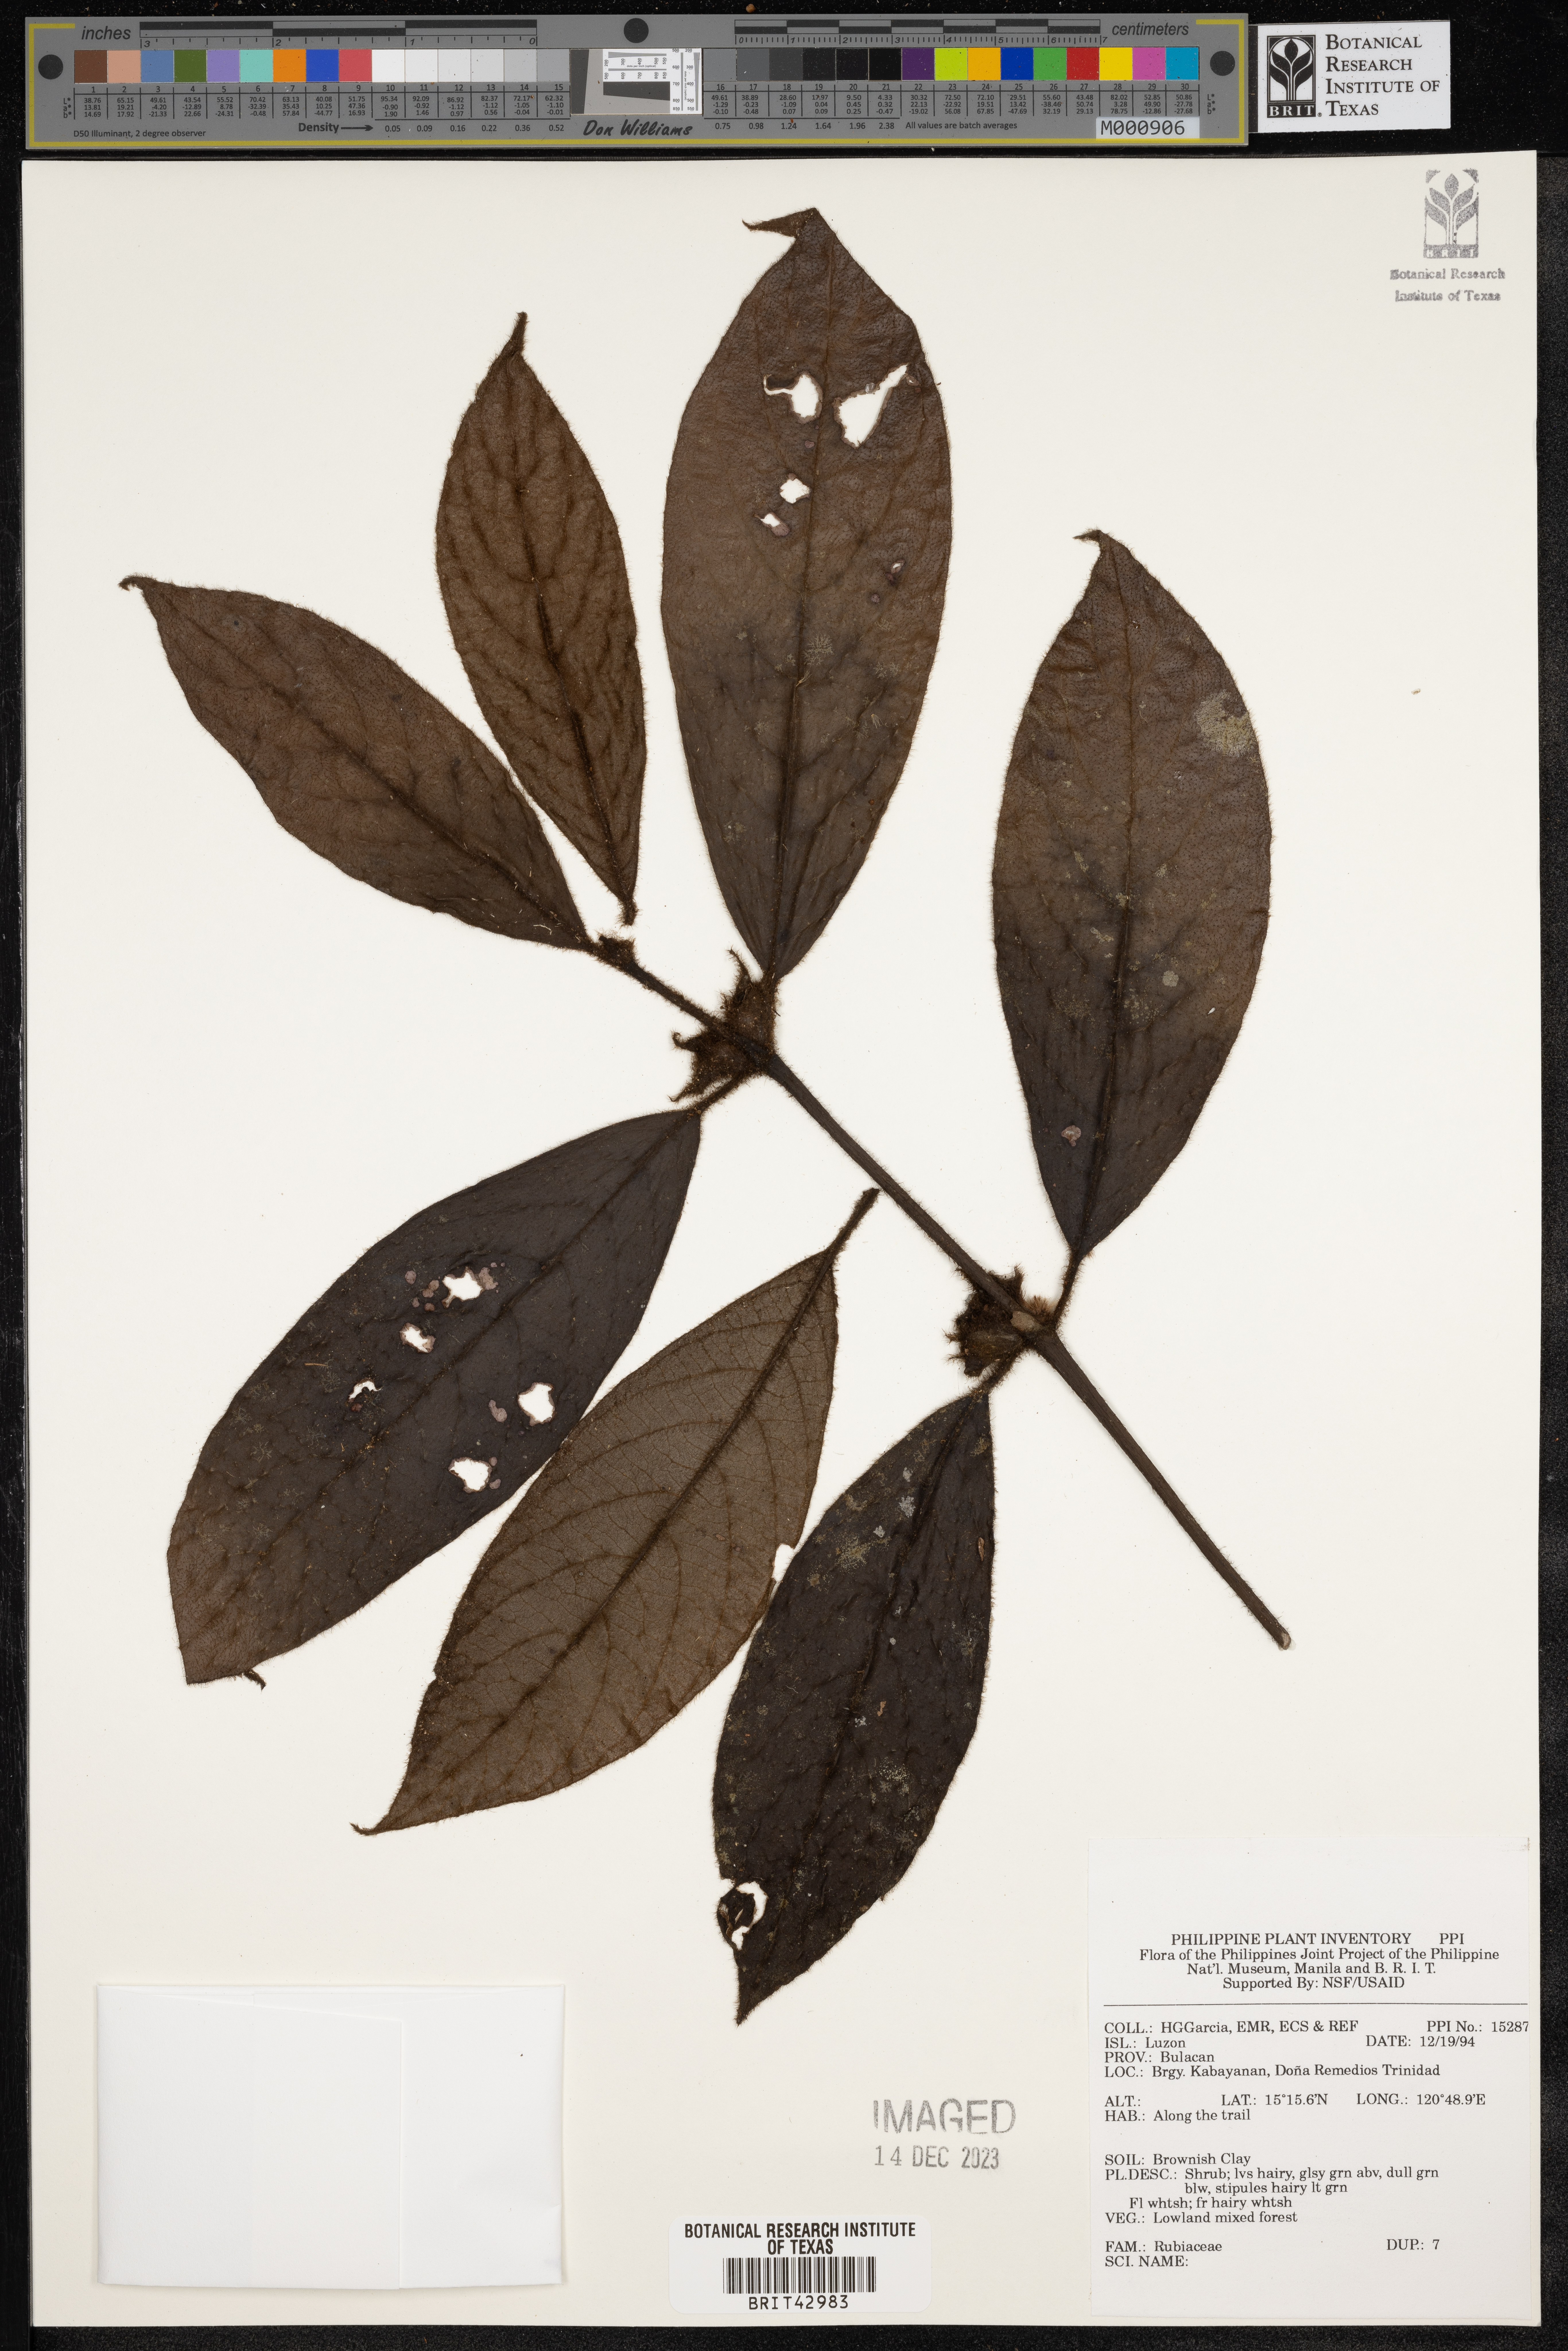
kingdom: Plantae
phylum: Tracheophyta
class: Magnoliopsida
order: Gentianales
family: Rubiaceae
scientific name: Rubiaceae
